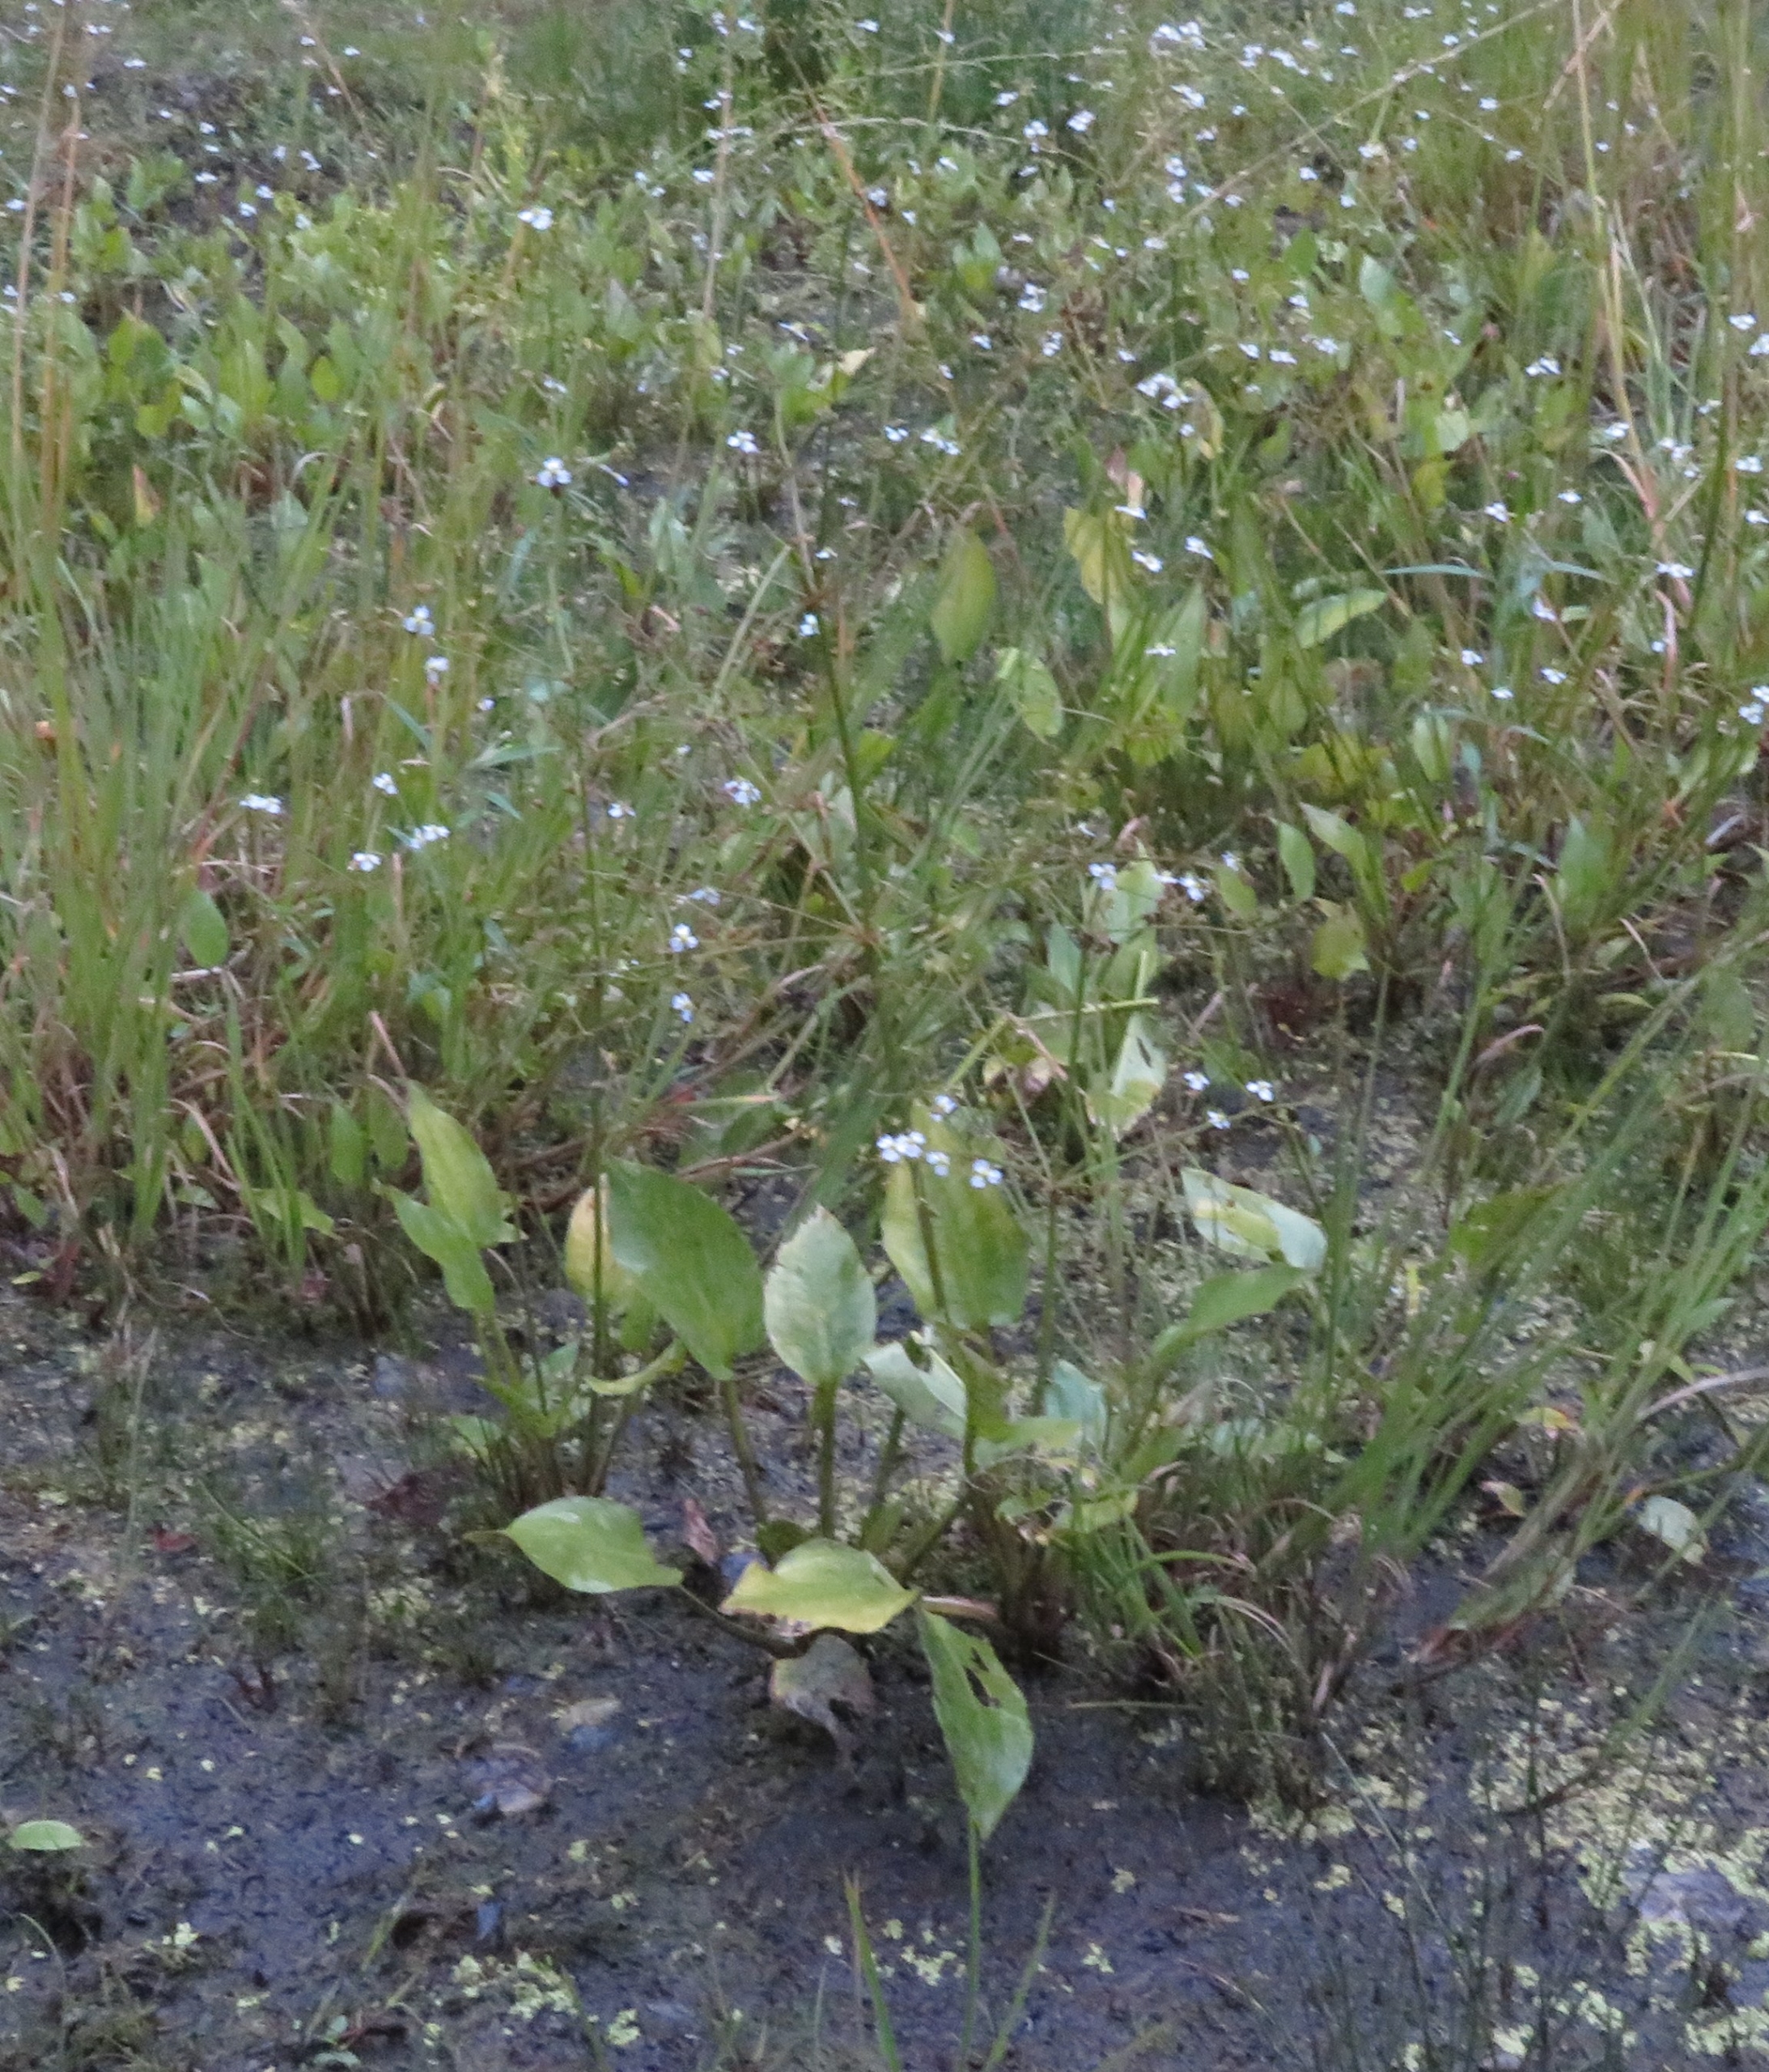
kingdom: Plantae
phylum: Tracheophyta
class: Liliopsida
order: Alismatales
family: Alismataceae
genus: Alisma
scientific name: Alisma plantago-aquatica
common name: Vejbred-skeblad
